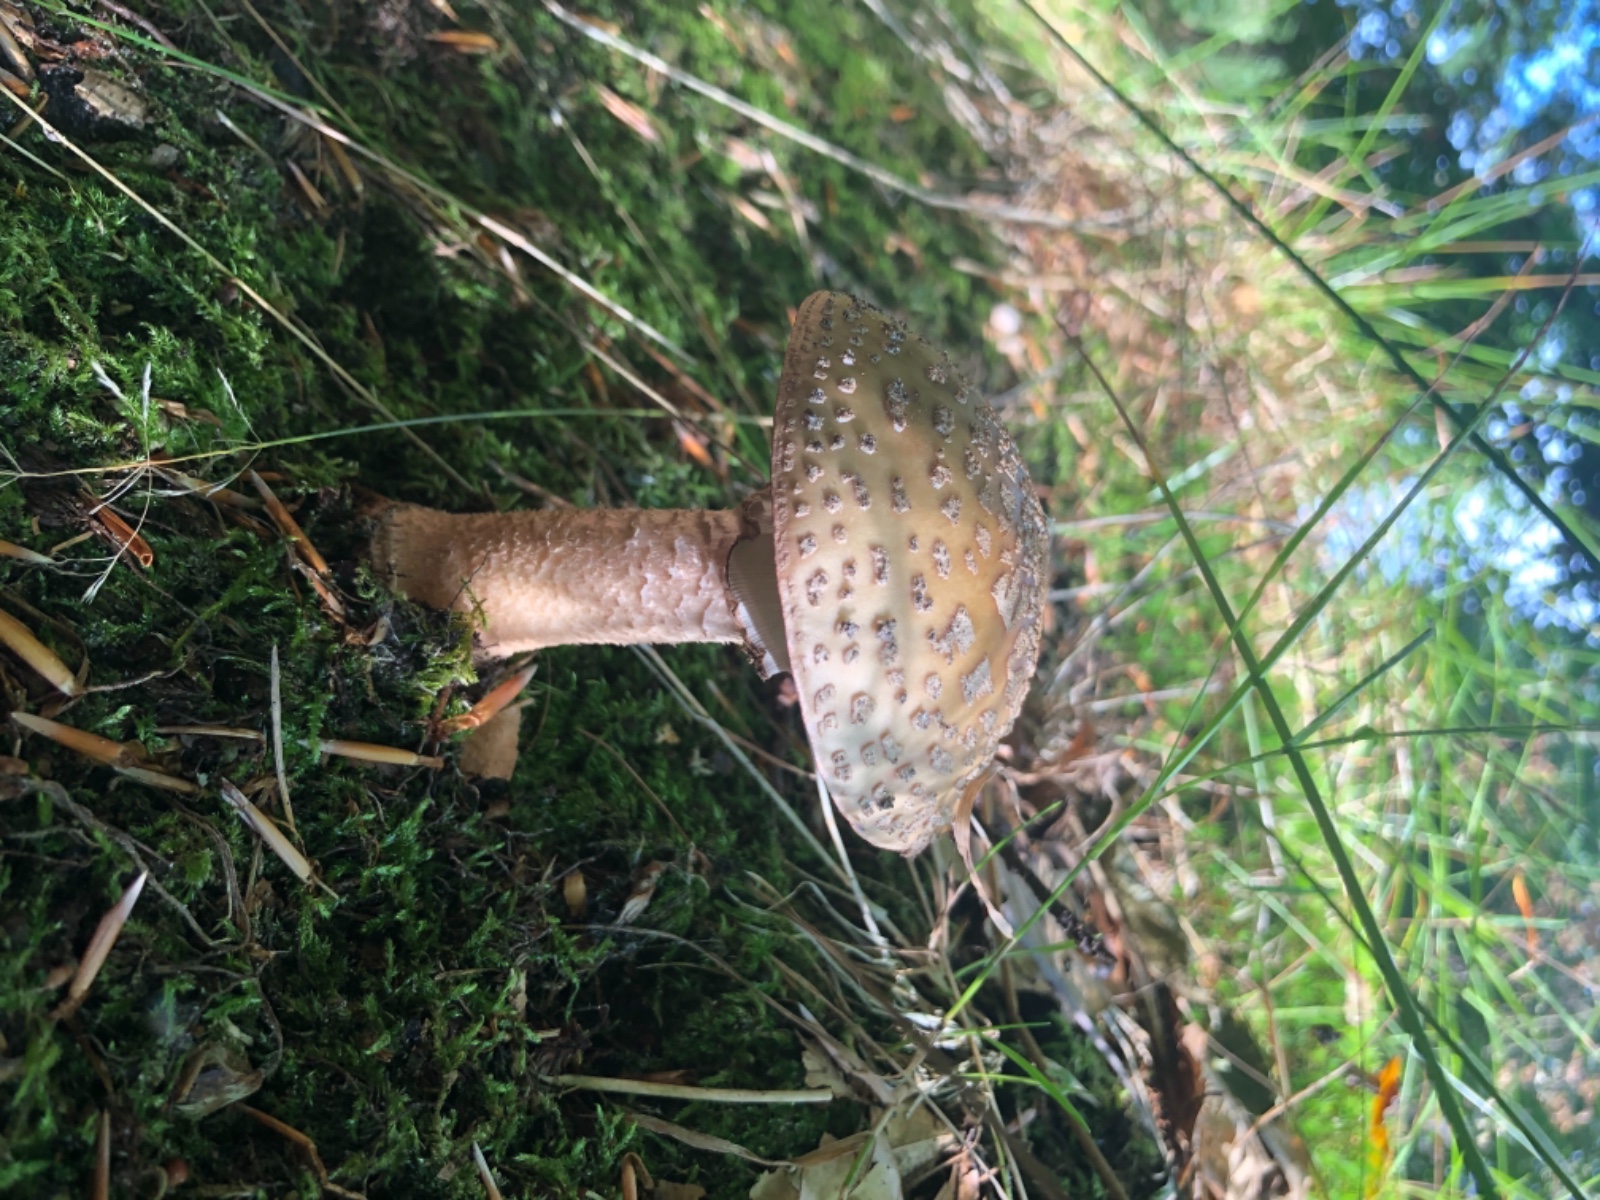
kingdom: Fungi
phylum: Basidiomycota
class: Agaricomycetes
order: Agaricales
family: Amanitaceae
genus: Amanita
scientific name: Amanita rubescens
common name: rødmende fluesvamp
